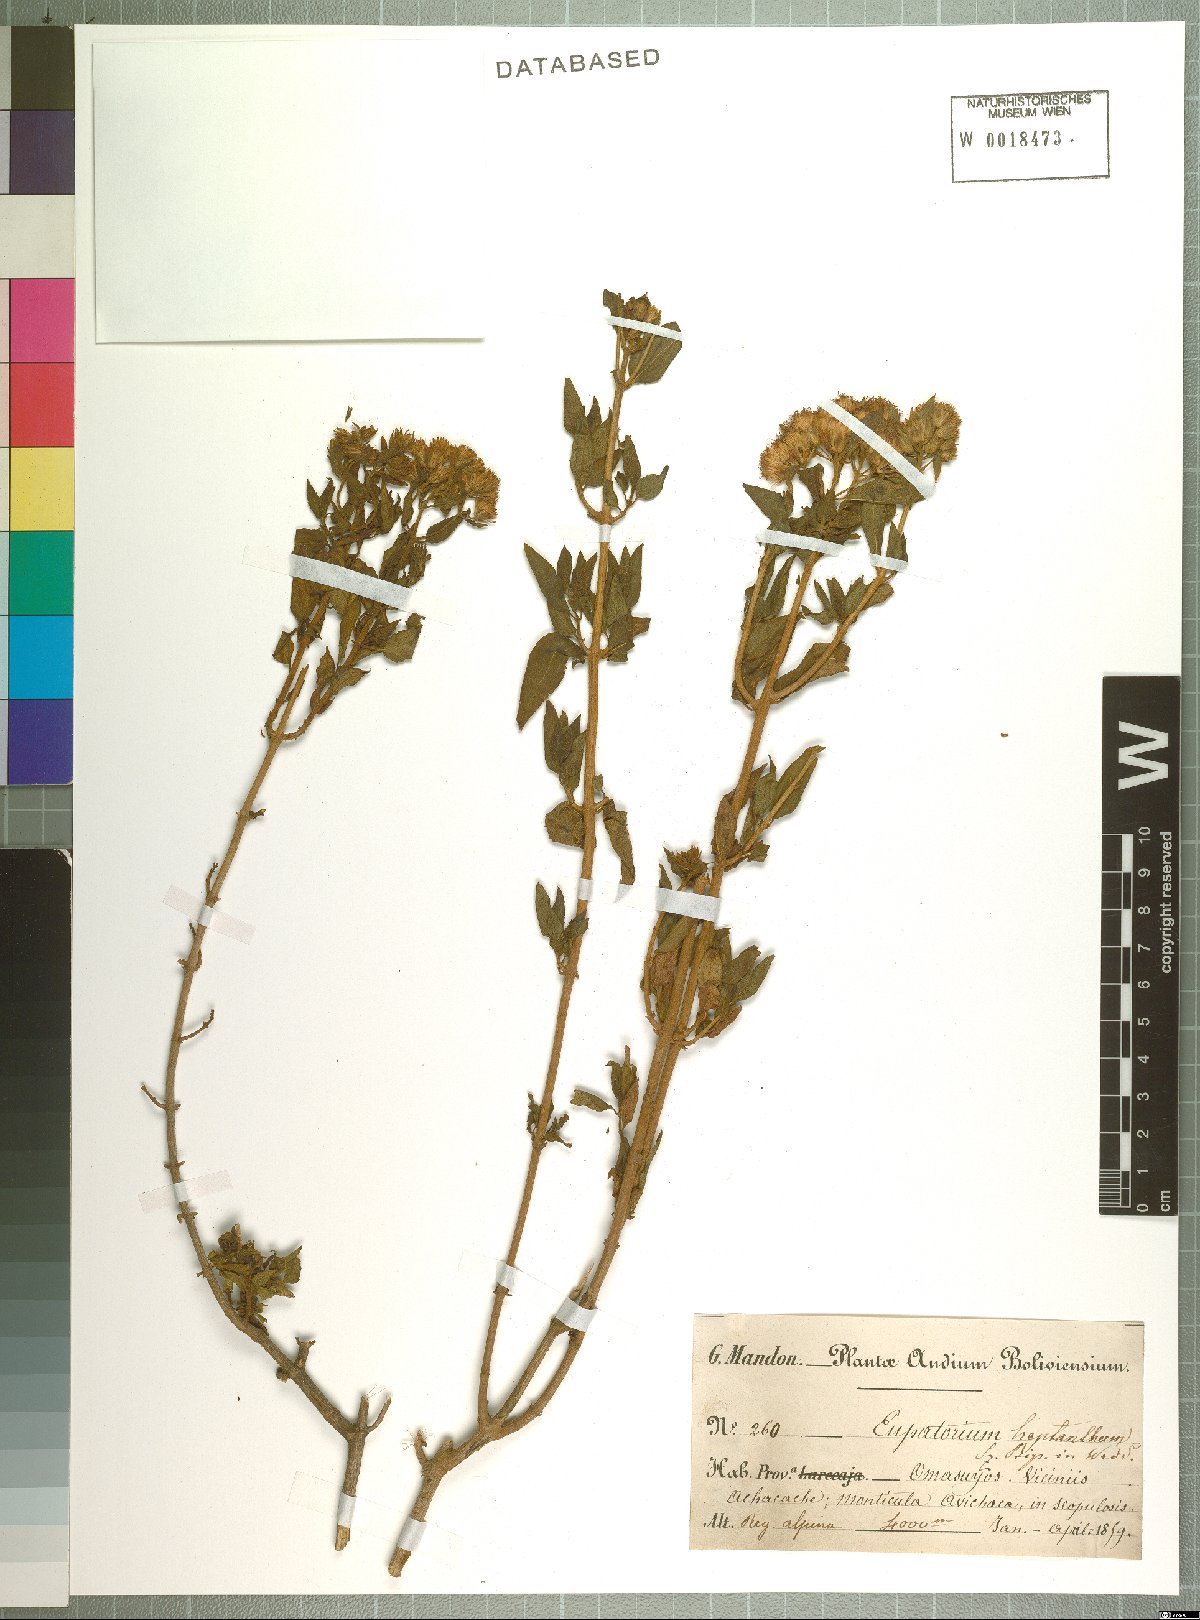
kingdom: Plantae
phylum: Tracheophyta
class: Magnoliopsida
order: Asterales
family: Asteraceae
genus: Ophryosporus
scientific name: Ophryosporus heptanthus
